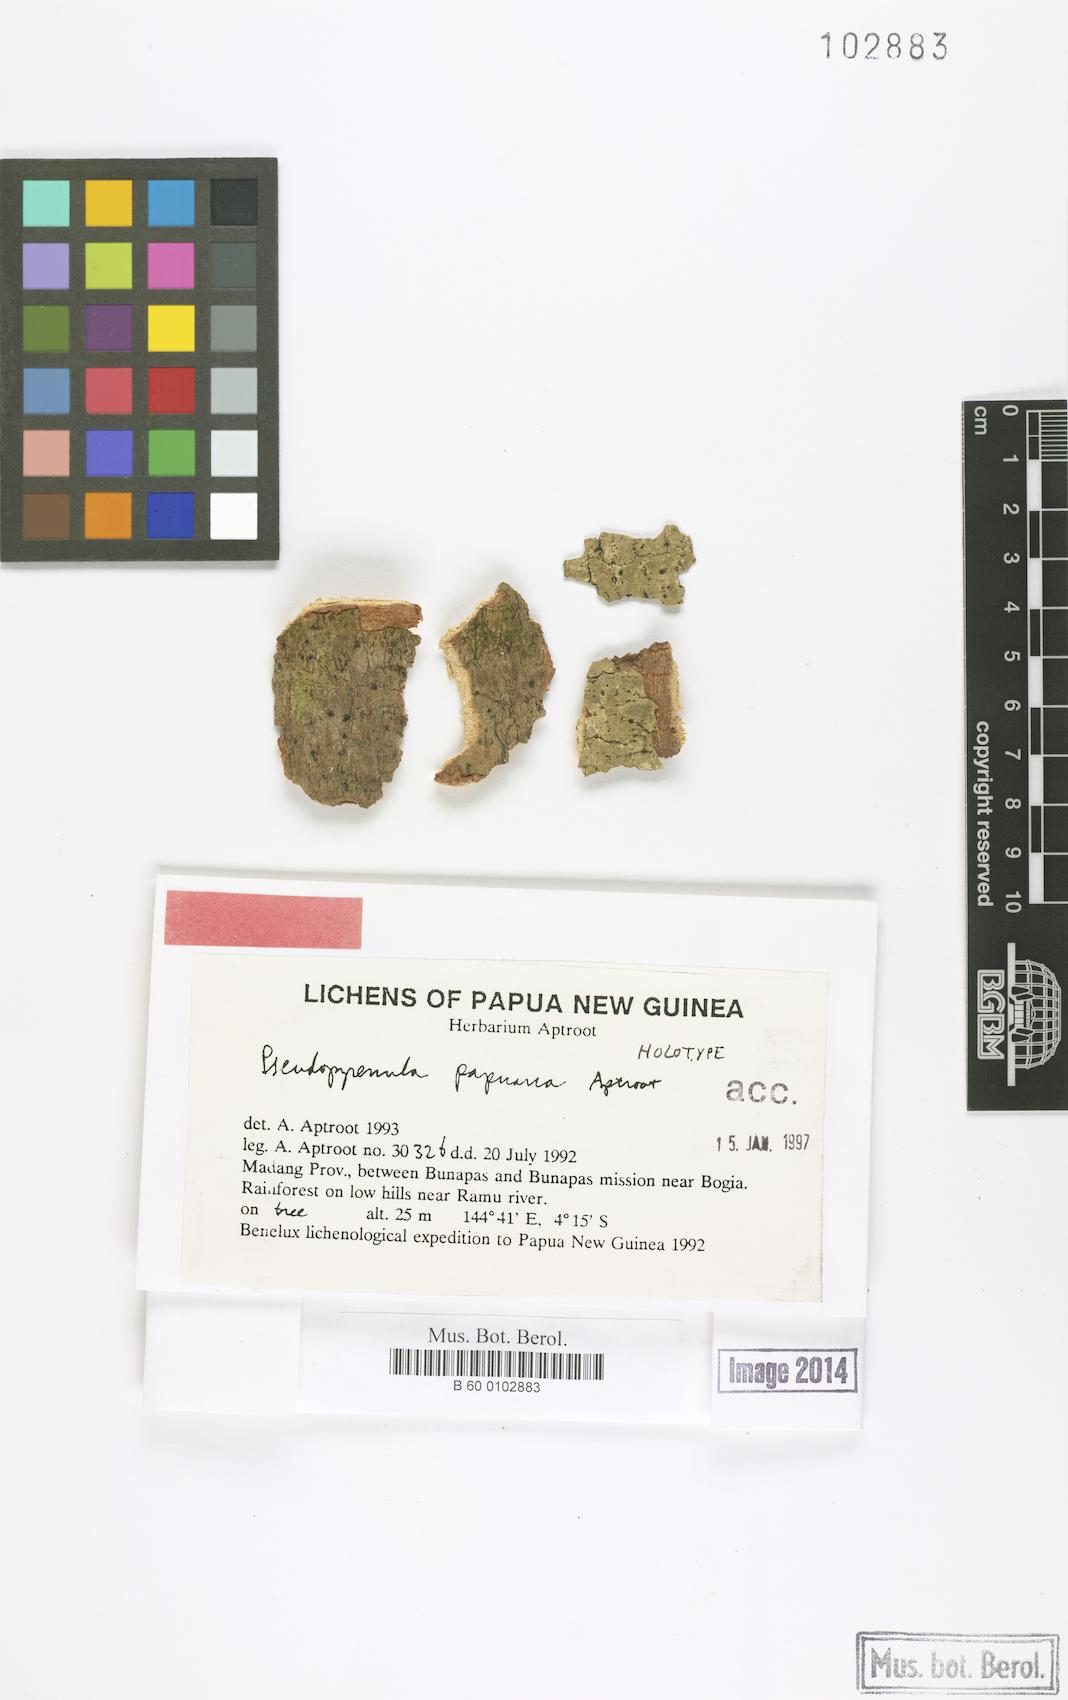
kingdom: Fungi
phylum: Ascomycota
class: Dothideomycetes
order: Trypetheliales
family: Trypetheliaceae
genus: Pseudopyrenula
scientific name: Pseudopyrenula
